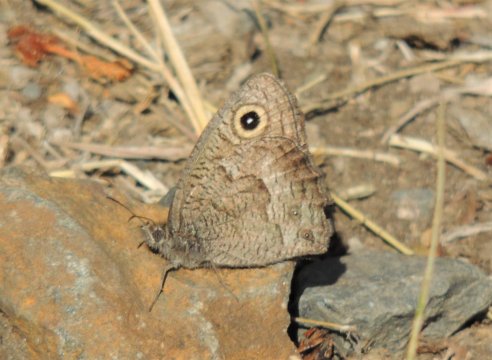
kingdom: Animalia
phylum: Arthropoda
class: Insecta
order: Lepidoptera
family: Nymphalidae
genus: Cercyonis
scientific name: Cercyonis sthenele
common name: Great Basin Wood-Nymph
